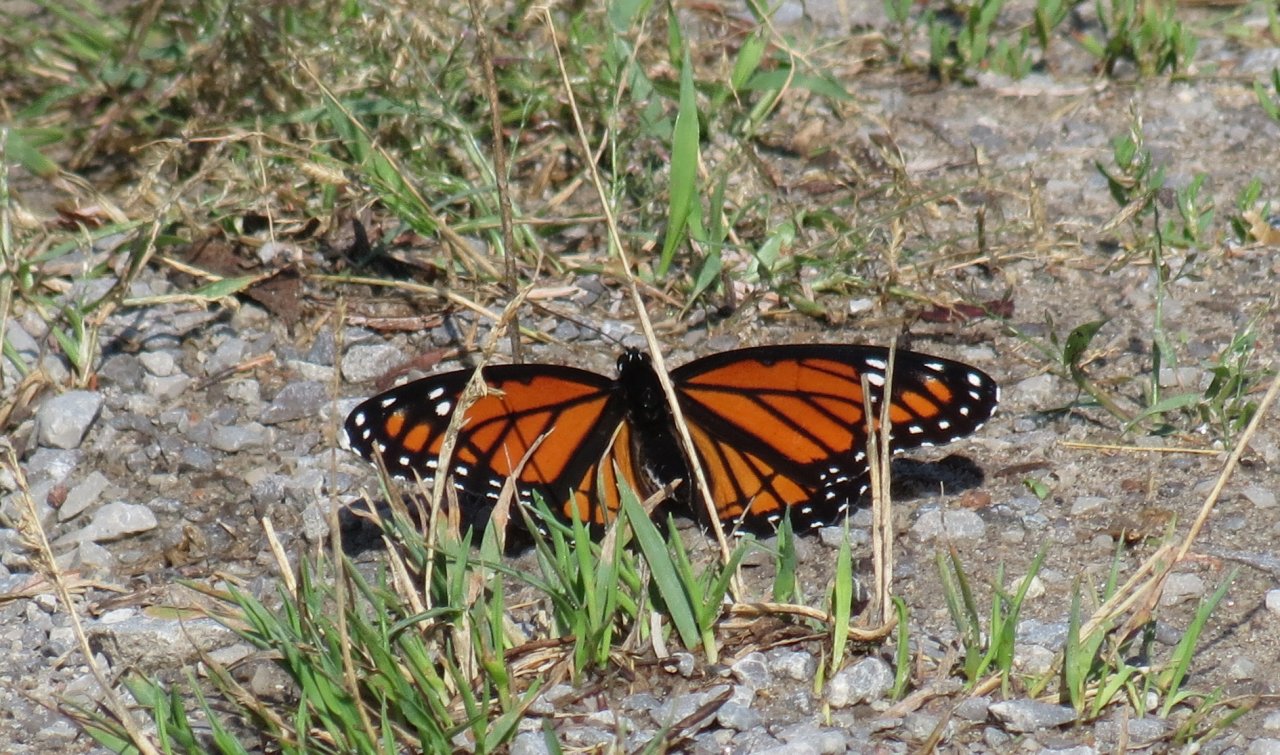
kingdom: Animalia
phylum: Arthropoda
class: Insecta
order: Lepidoptera
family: Nymphalidae
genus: Limenitis
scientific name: Limenitis archippus
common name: Viceroy
